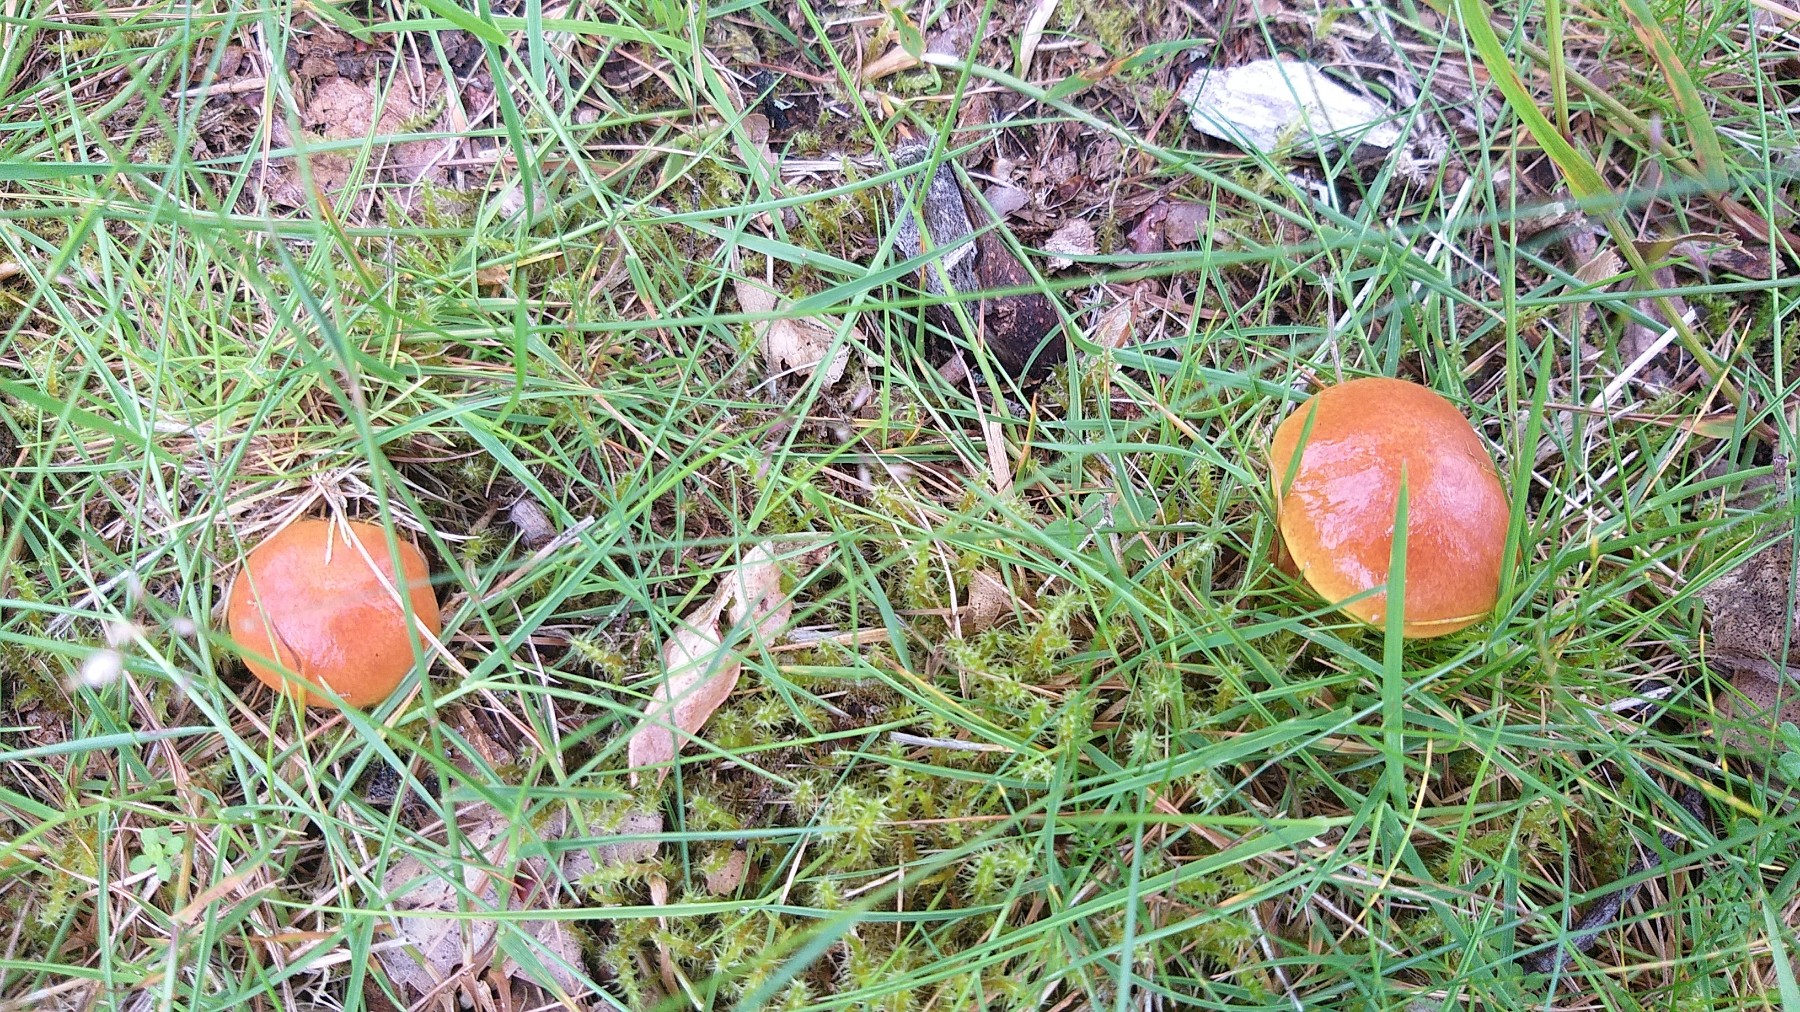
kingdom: Fungi
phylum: Basidiomycota
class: Agaricomycetes
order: Boletales
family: Suillaceae
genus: Suillus
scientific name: Suillus grevillei
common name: lærke-slimrørhat
